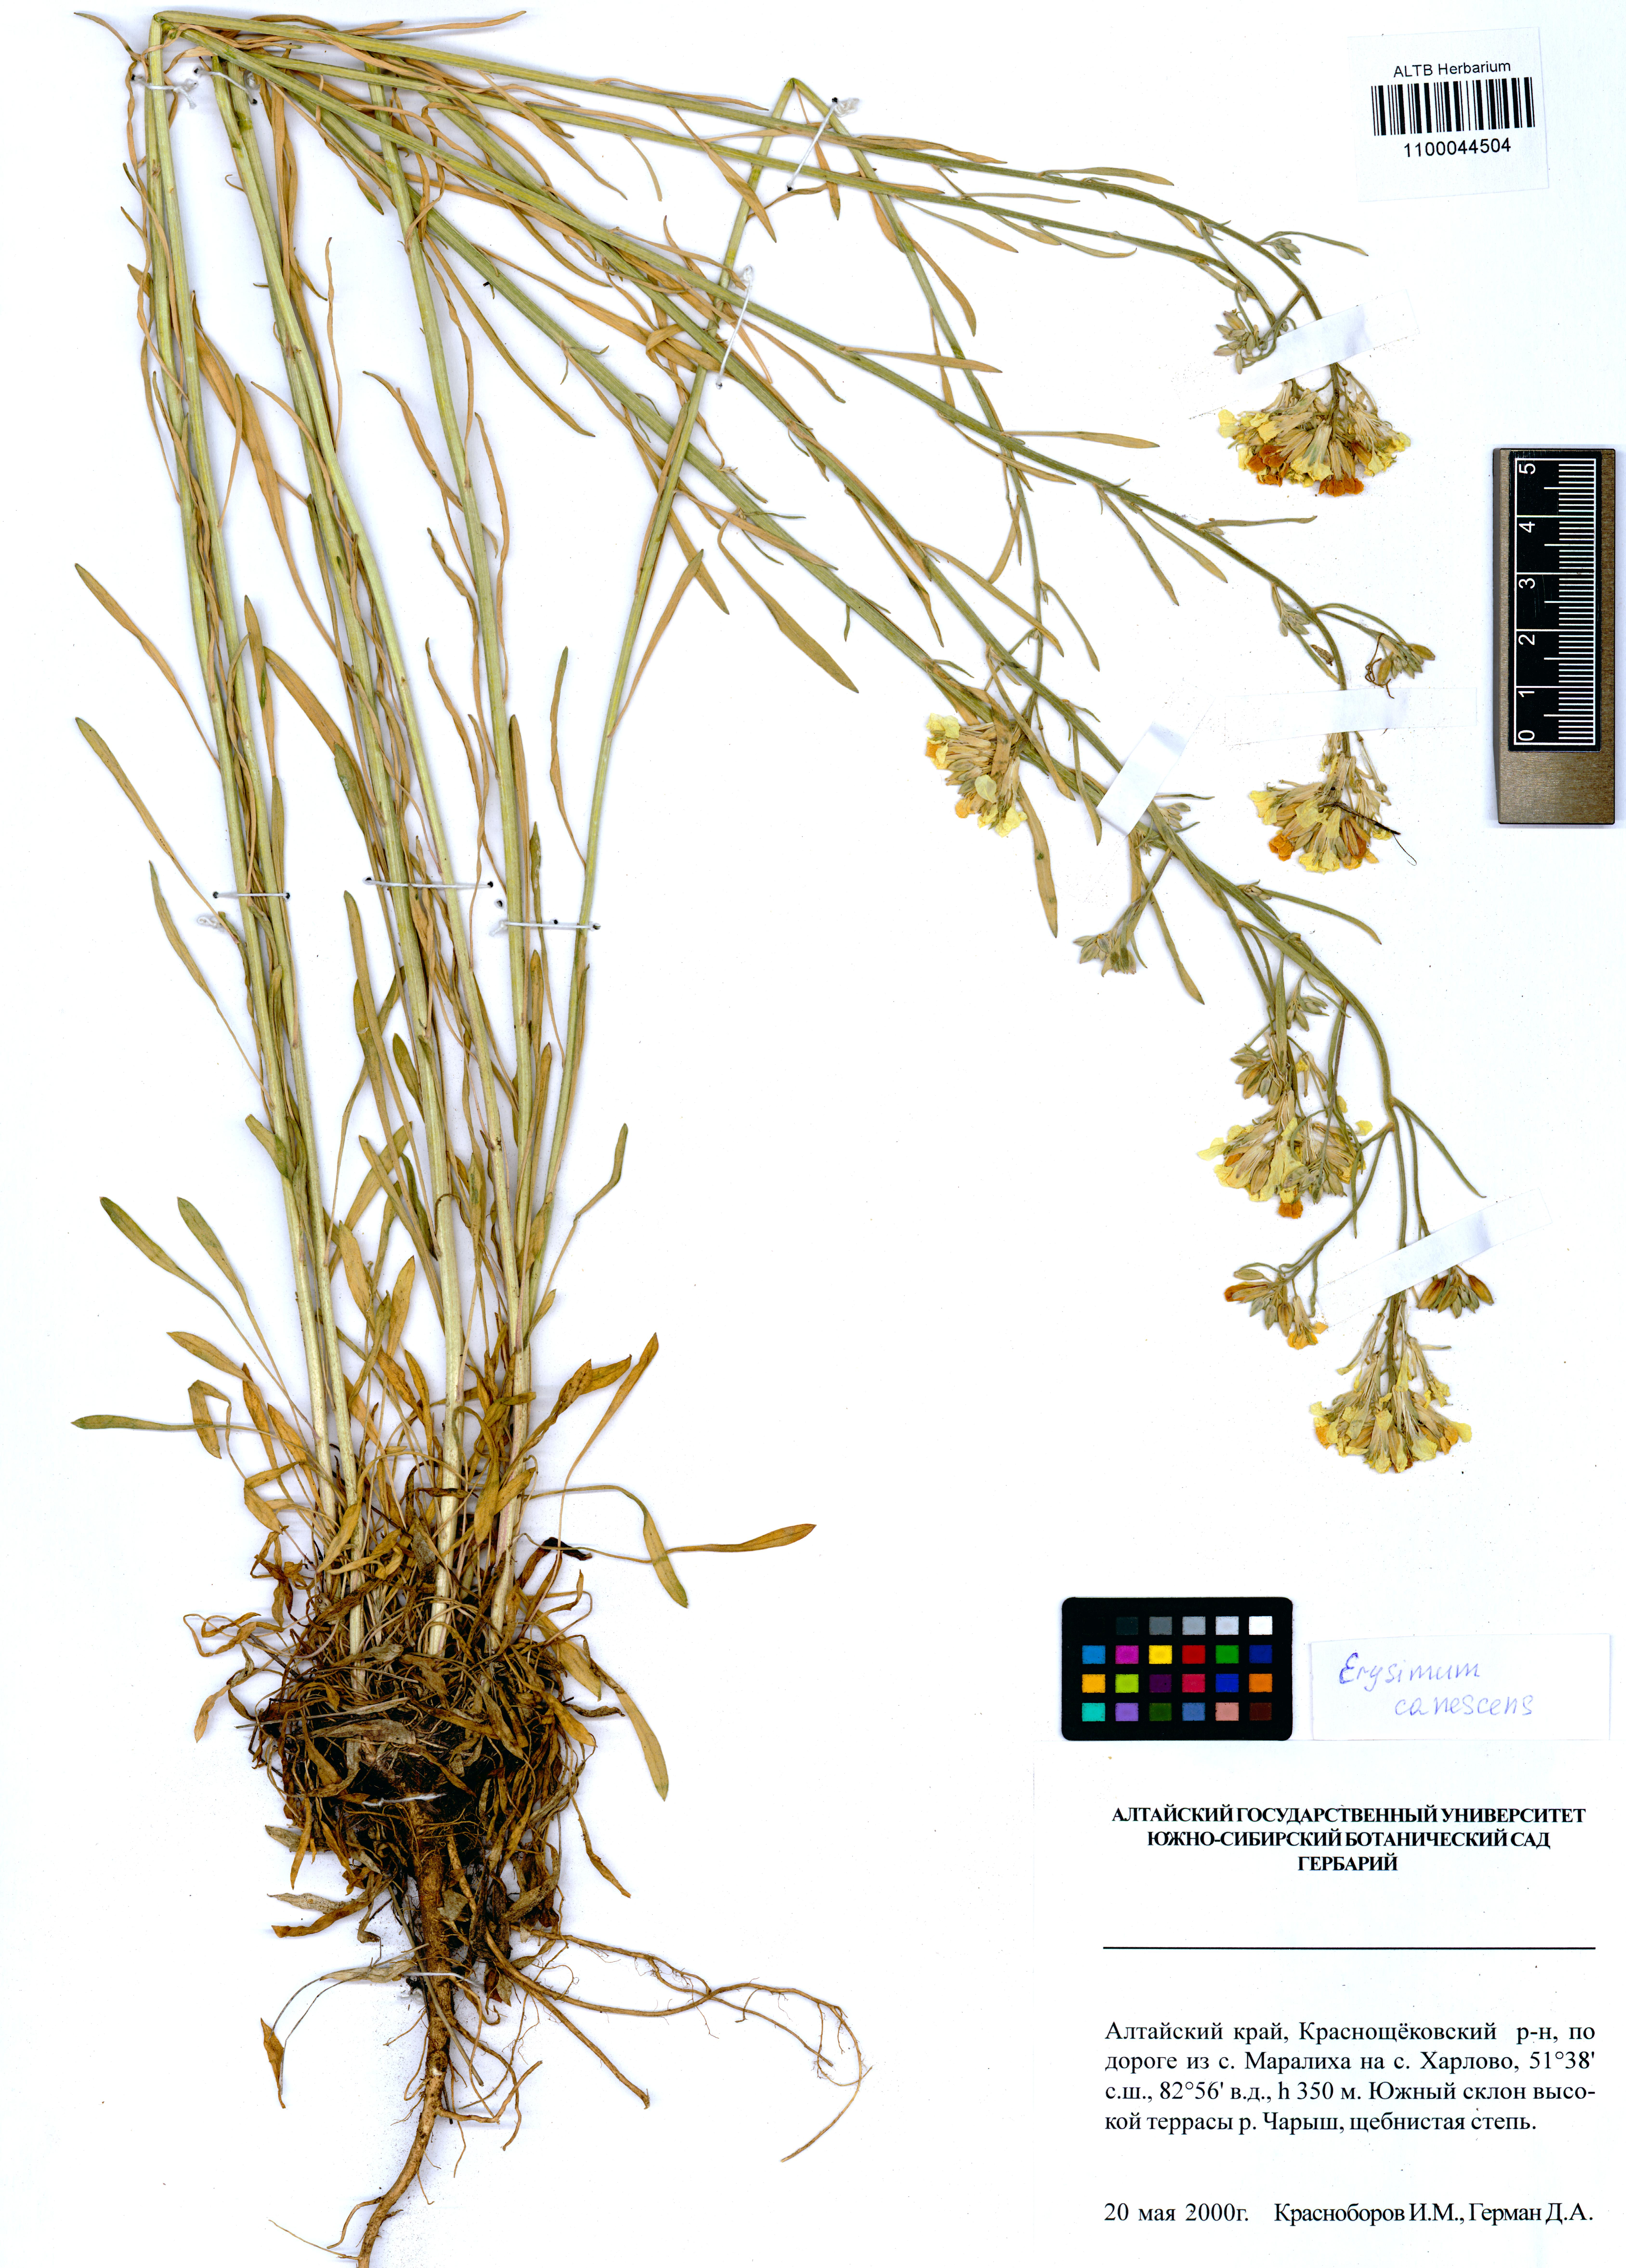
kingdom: Plantae
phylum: Tracheophyta
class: Magnoliopsida
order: Brassicales
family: Brassicaceae
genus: Erysimum
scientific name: Erysimum canescens
